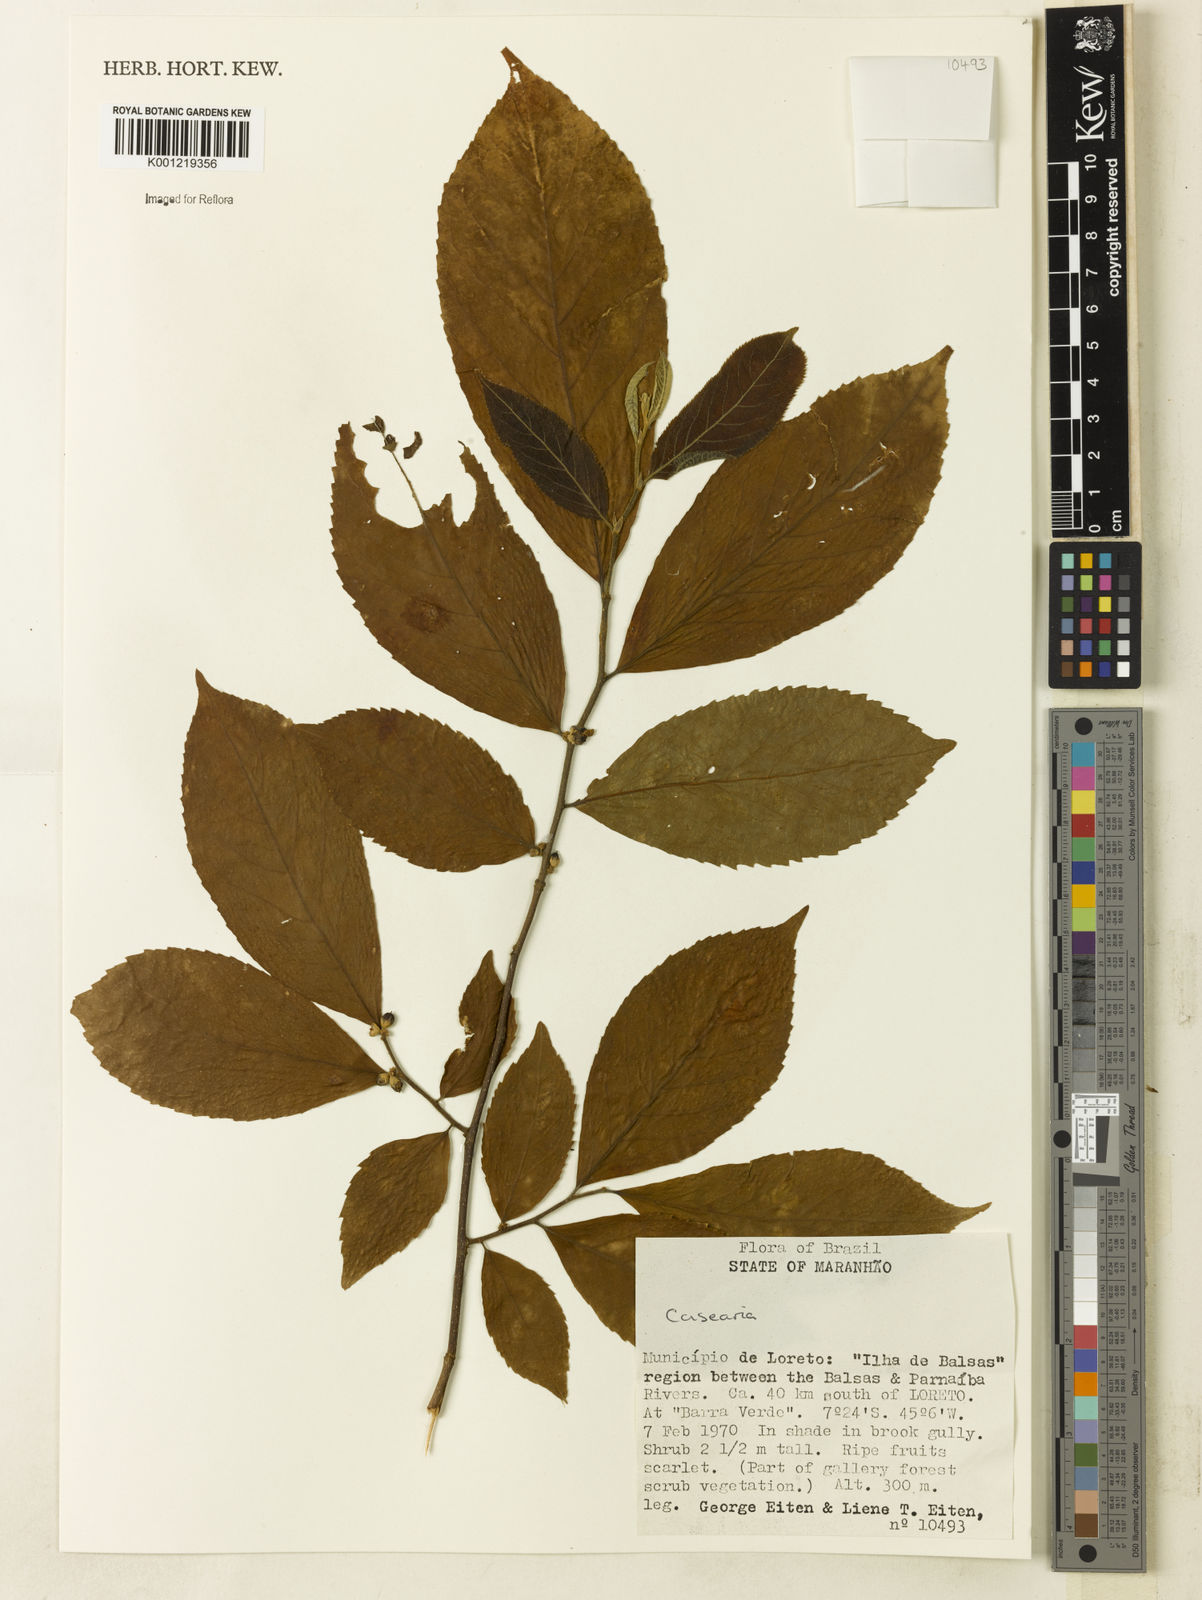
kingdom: Plantae
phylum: Tracheophyta
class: Magnoliopsida
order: Malpighiales
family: Salicaceae
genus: Casearia
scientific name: Casearia
